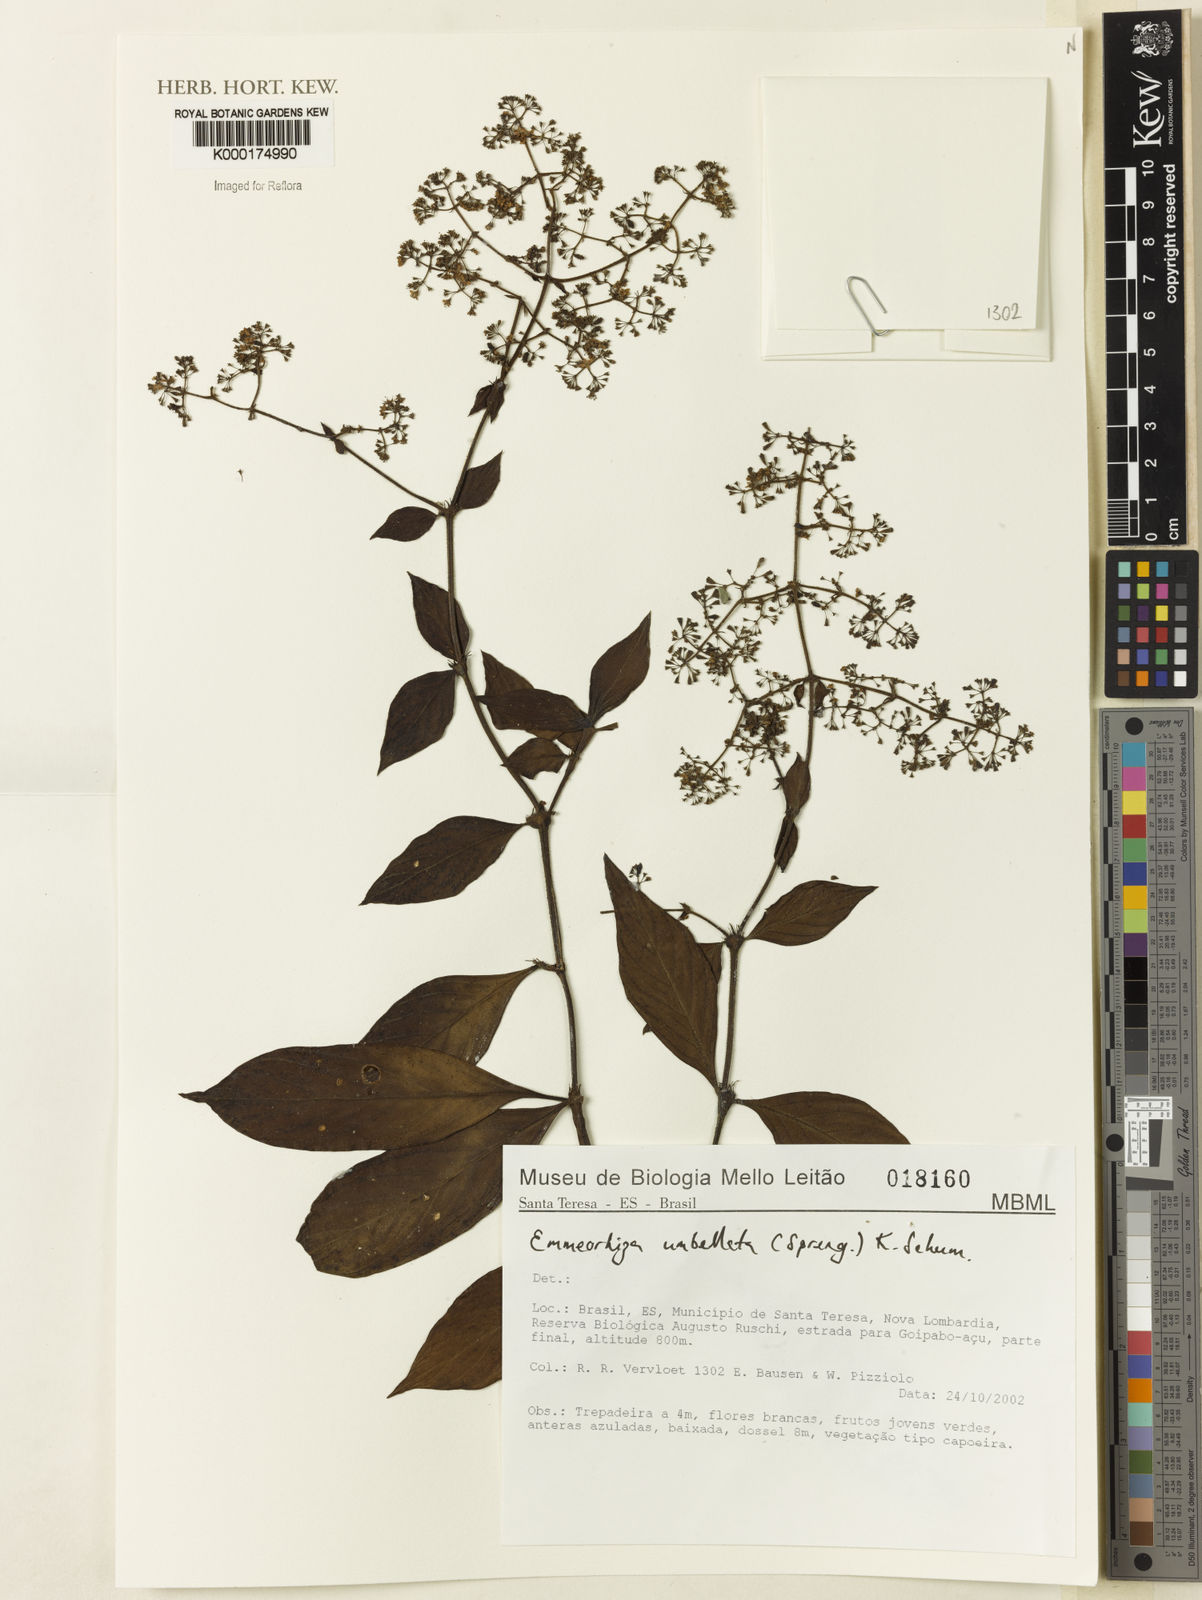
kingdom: Plantae
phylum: Tracheophyta
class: Magnoliopsida
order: Gentianales
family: Rubiaceae
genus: Emmeorhiza
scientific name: Emmeorhiza umbellata
